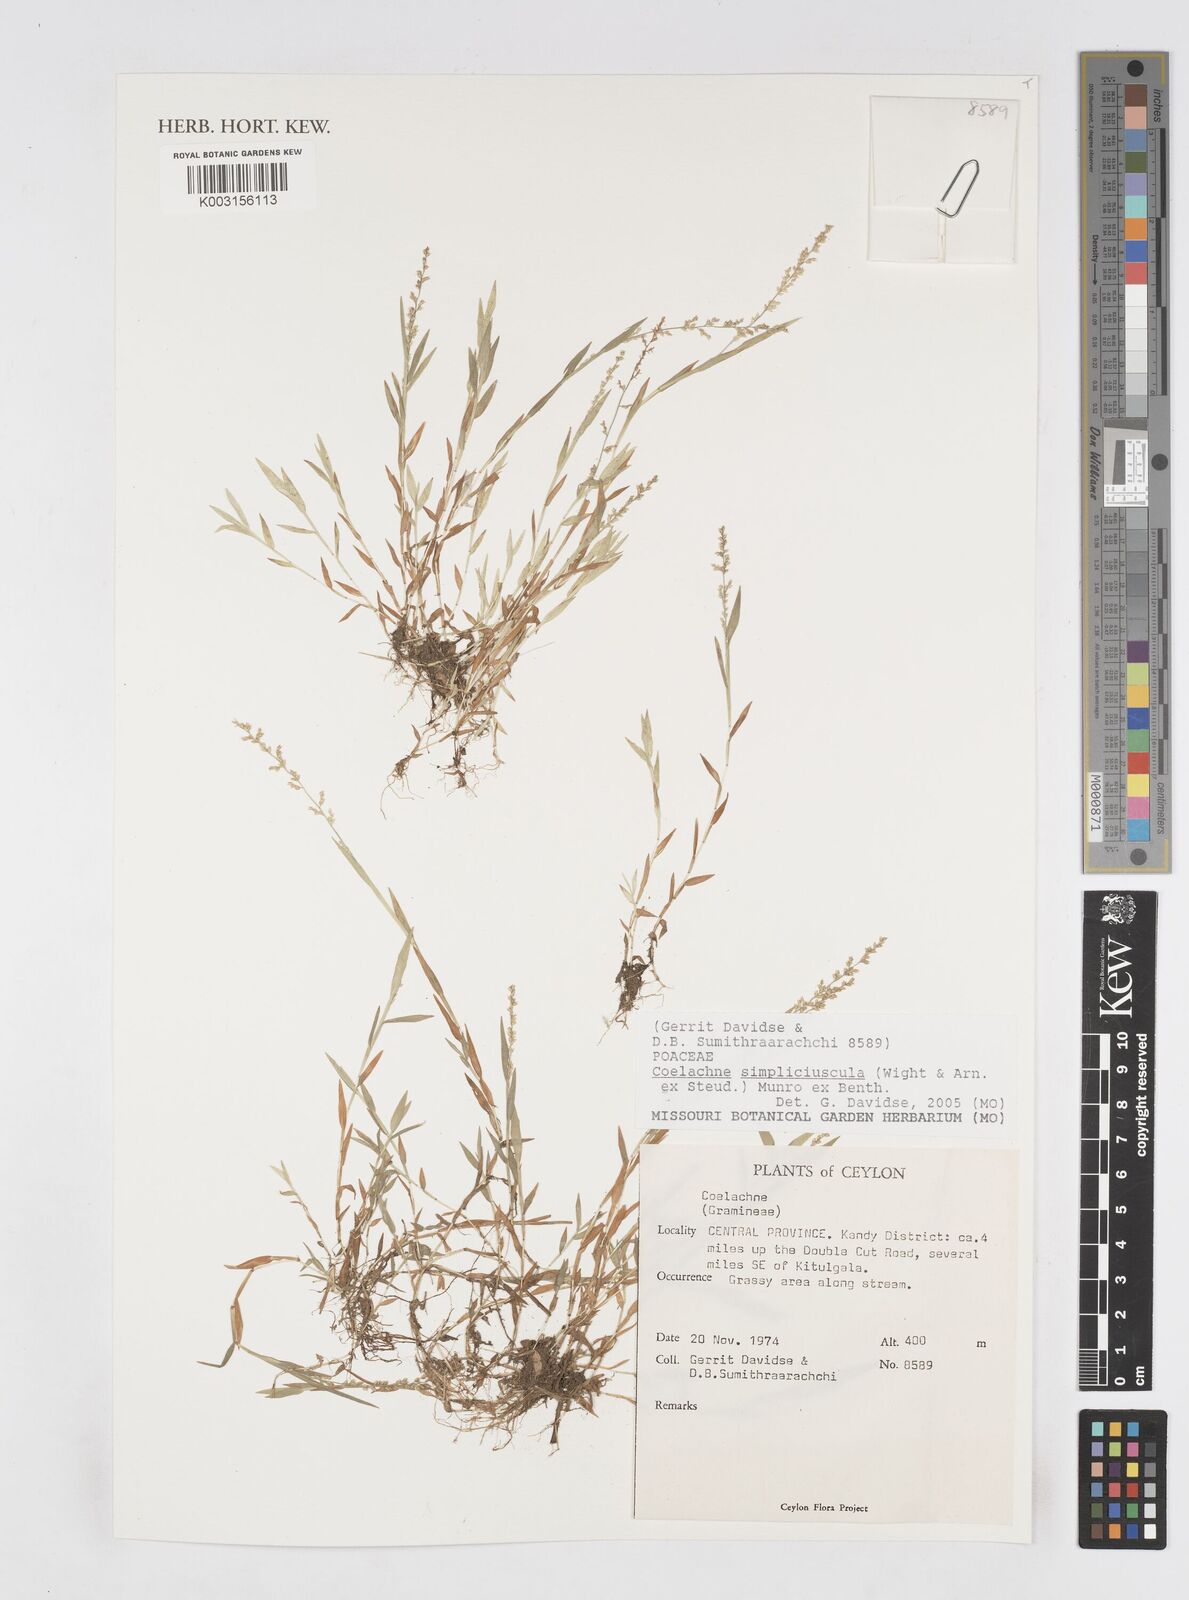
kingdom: Plantae
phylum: Tracheophyta
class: Liliopsida
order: Poales
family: Poaceae
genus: Coelachne
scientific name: Coelachne simpliciuscula
